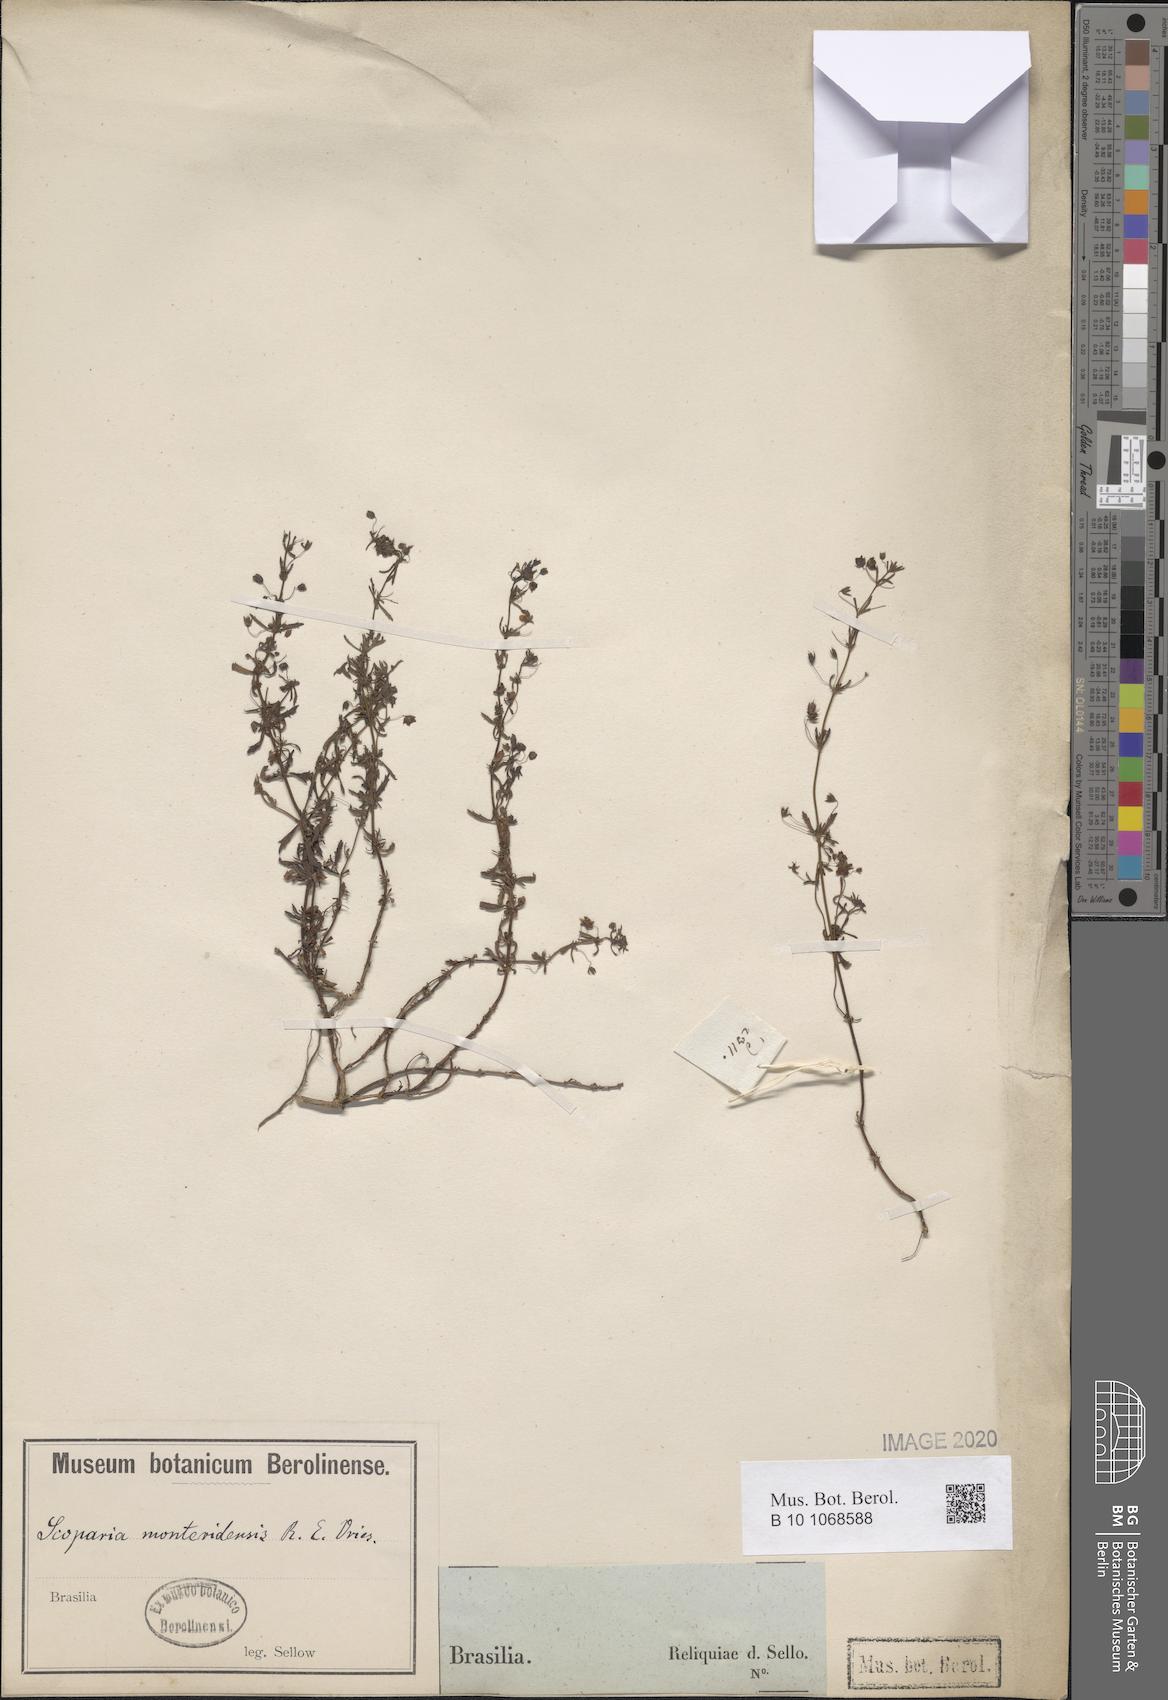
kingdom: Plantae
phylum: Tracheophyta
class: Magnoliopsida
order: Lamiales
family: Plantaginaceae
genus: Scoparia
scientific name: Scoparia montevidensis
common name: Broomwort
